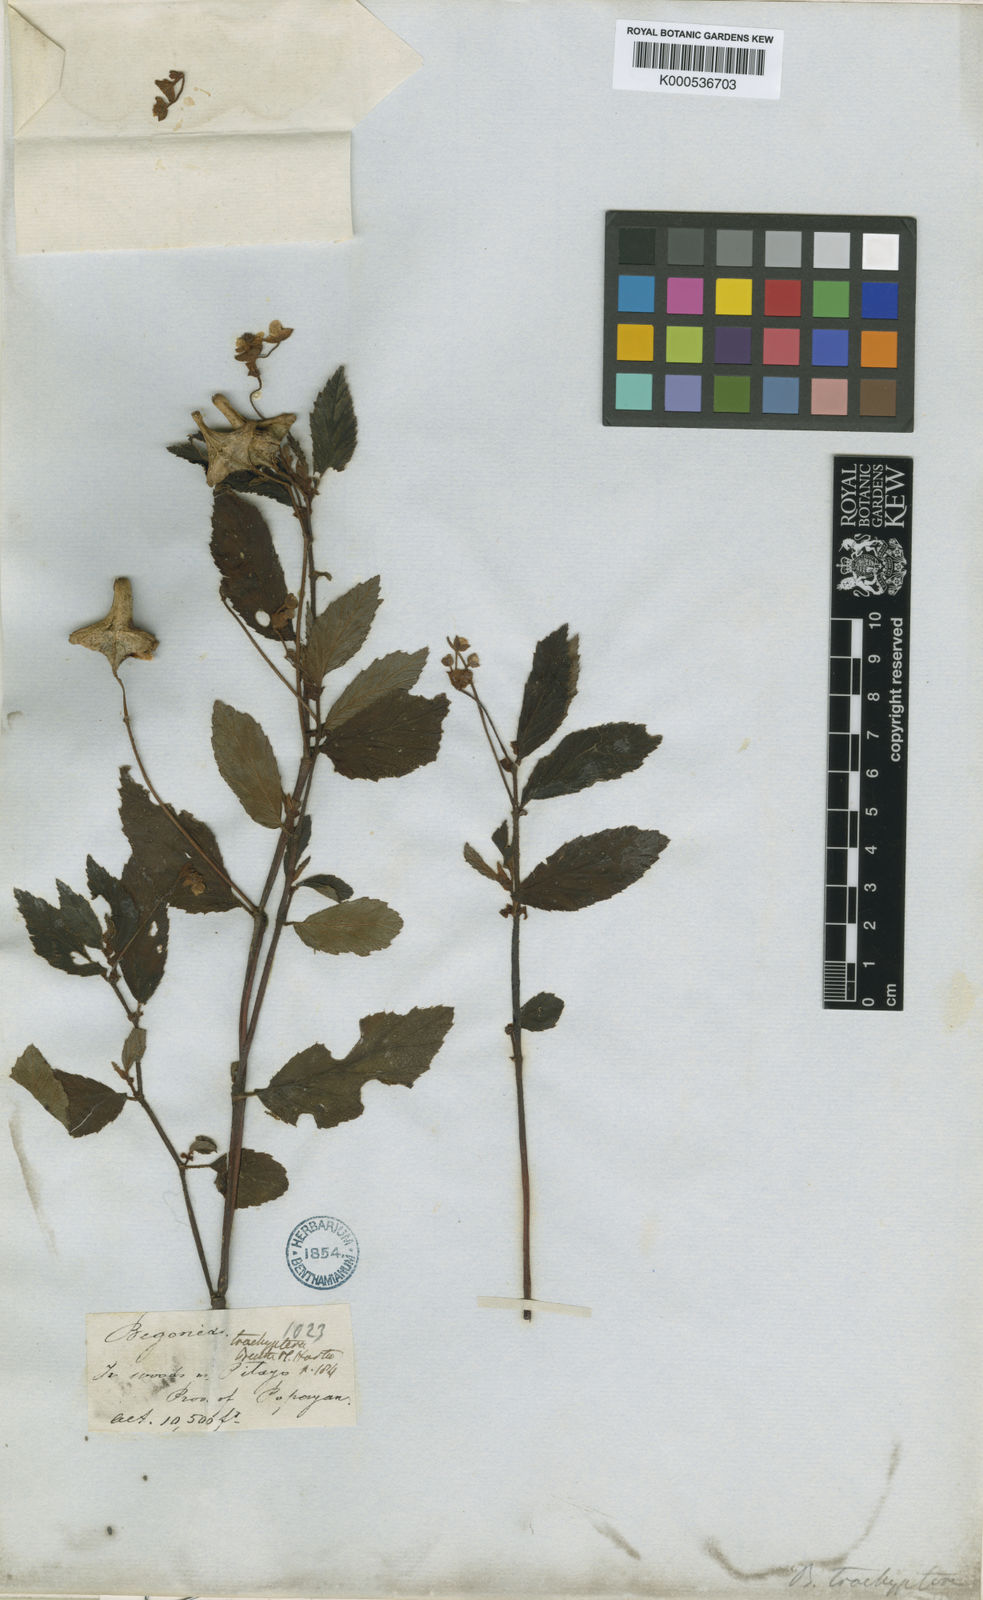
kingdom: Plantae
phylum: Tracheophyta
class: Magnoliopsida
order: Cucurbitales
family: Begoniaceae
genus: Begonia
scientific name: Begonia urticae
